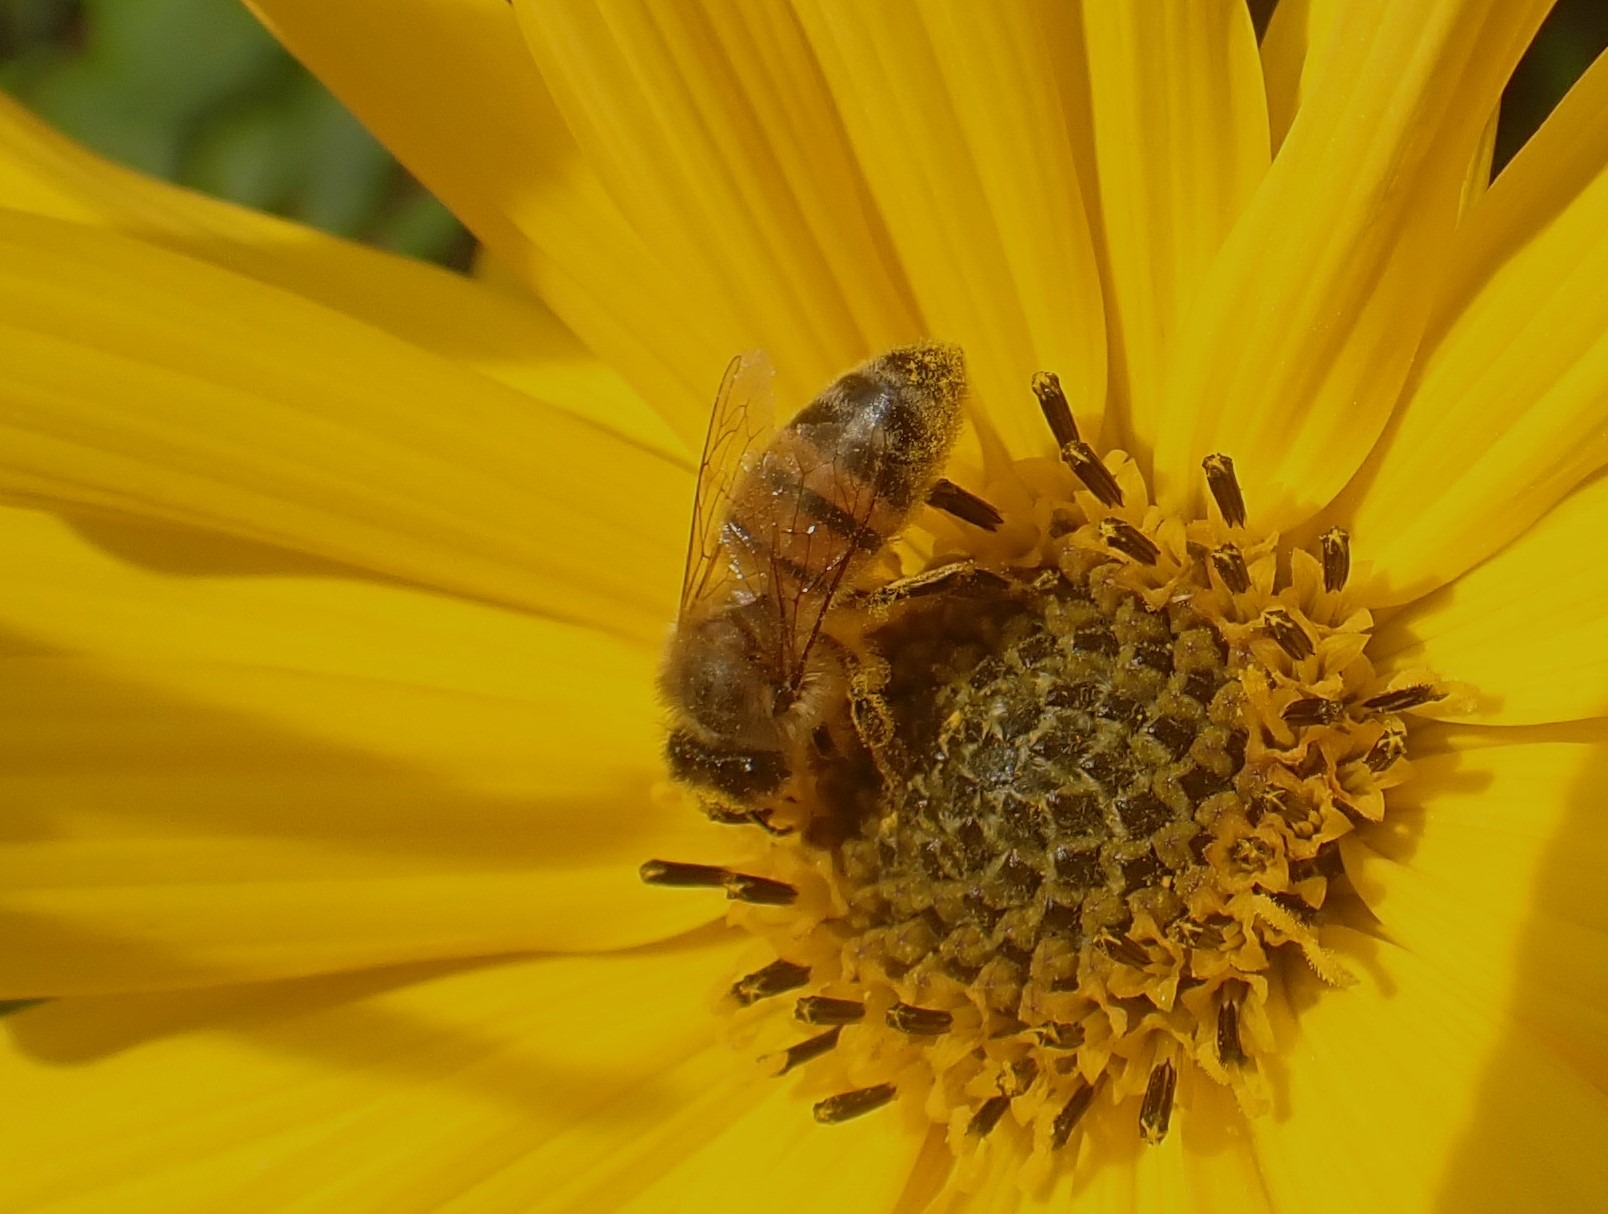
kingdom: Animalia
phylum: Arthropoda
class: Insecta
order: Hymenoptera
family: Apidae
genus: Apis
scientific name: Apis mellifera
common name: Honningbi
